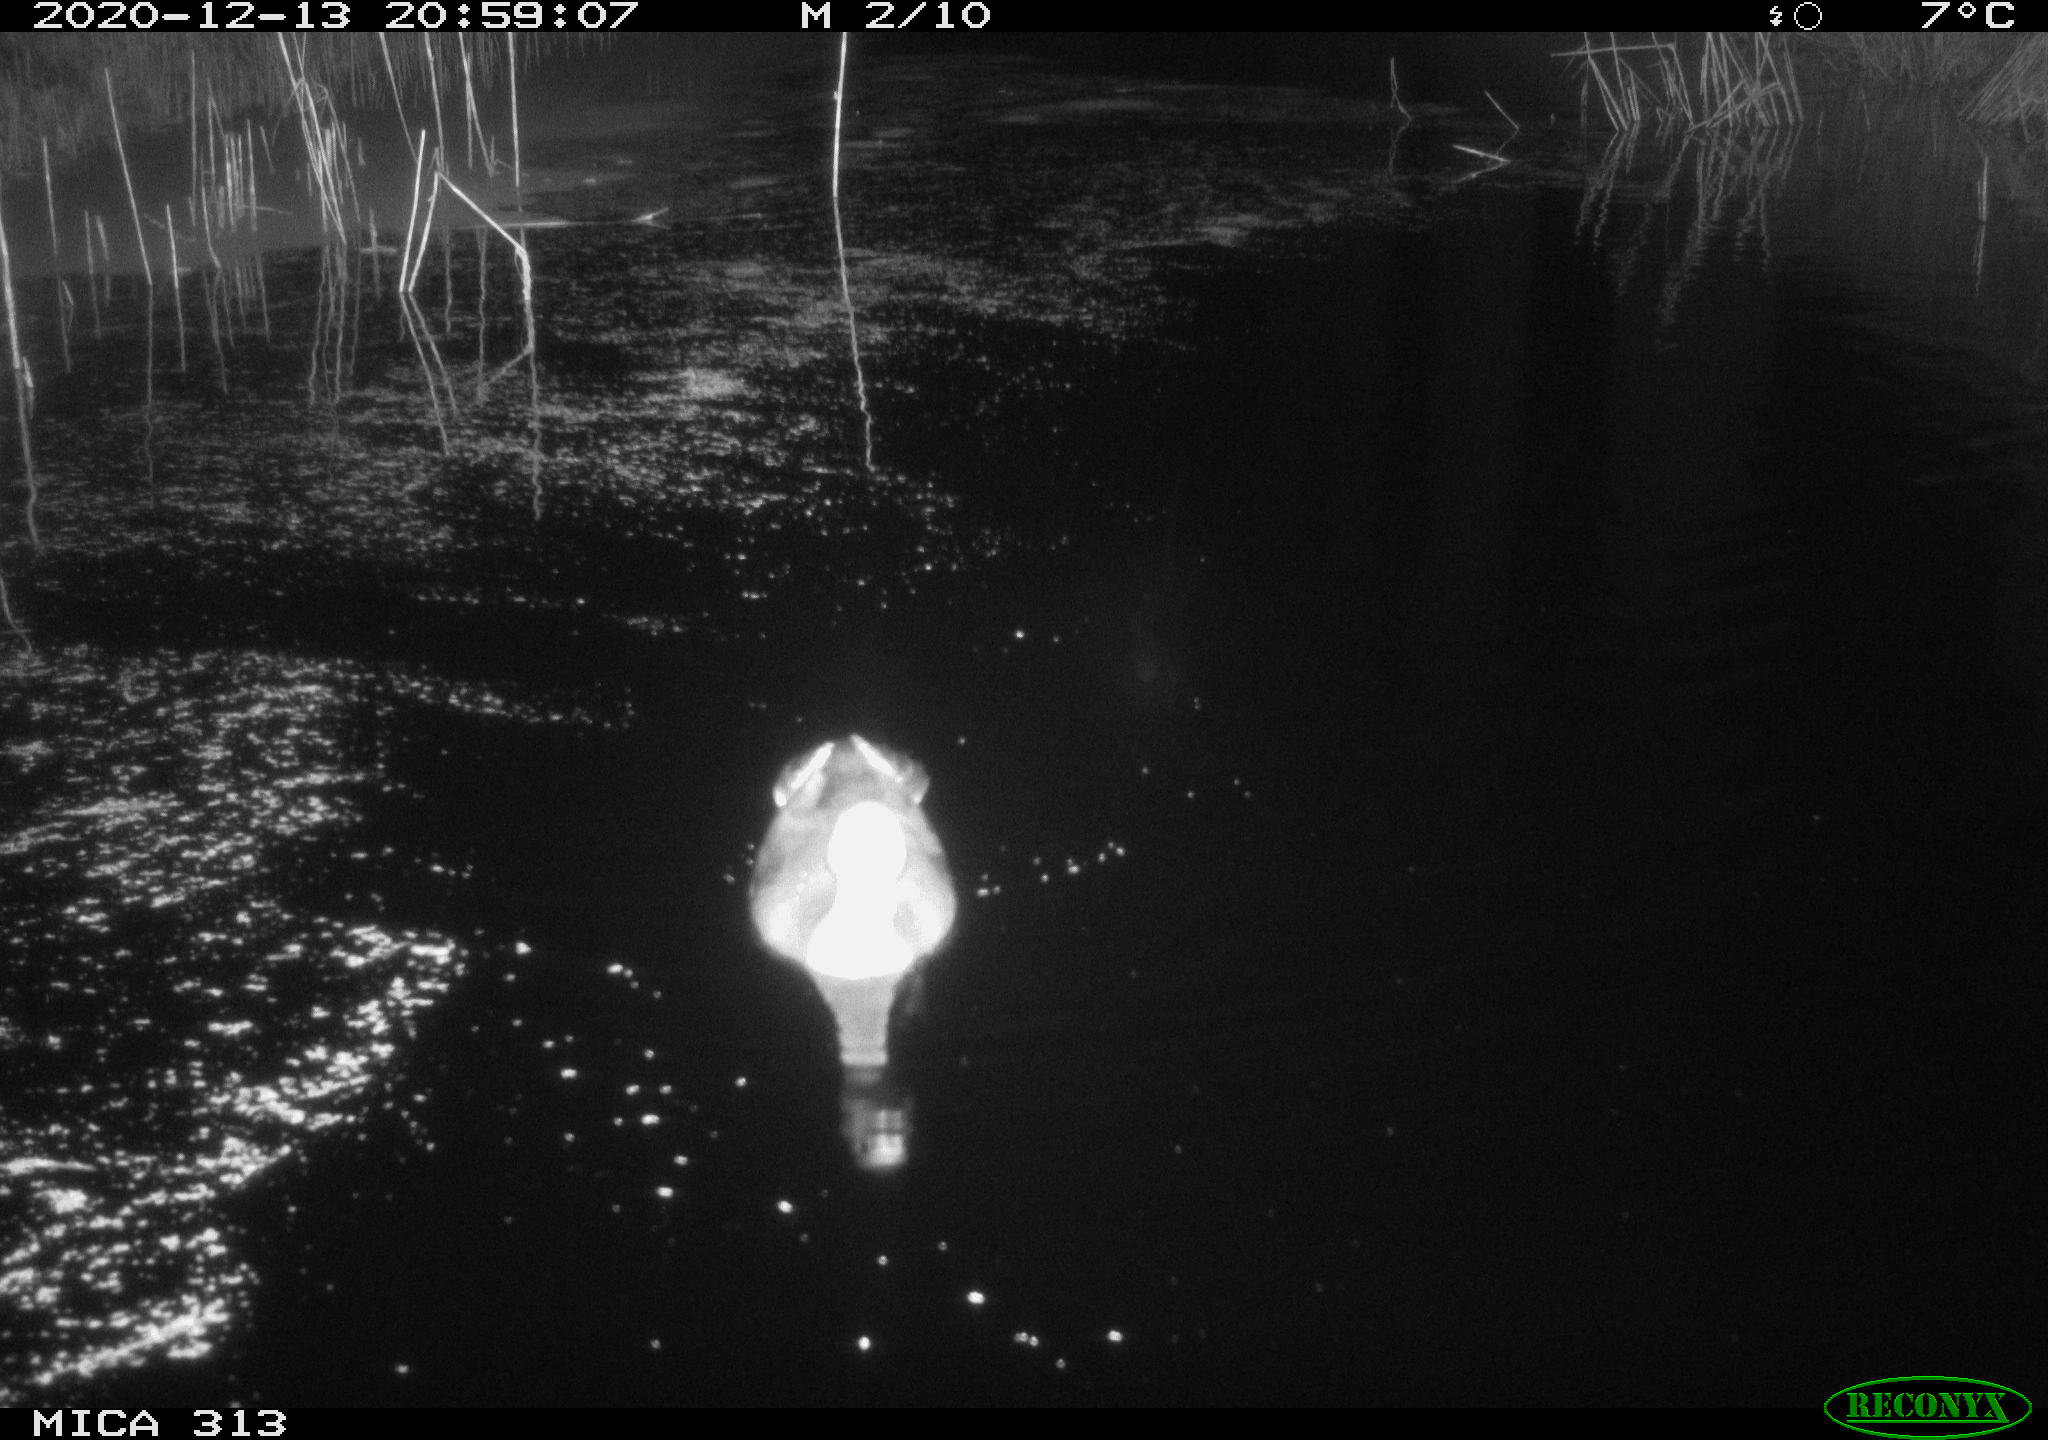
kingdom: Animalia
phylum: Chordata
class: Aves
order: Gruiformes
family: Rallidae
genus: Gallinula
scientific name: Gallinula chloropus
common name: Common moorhen
